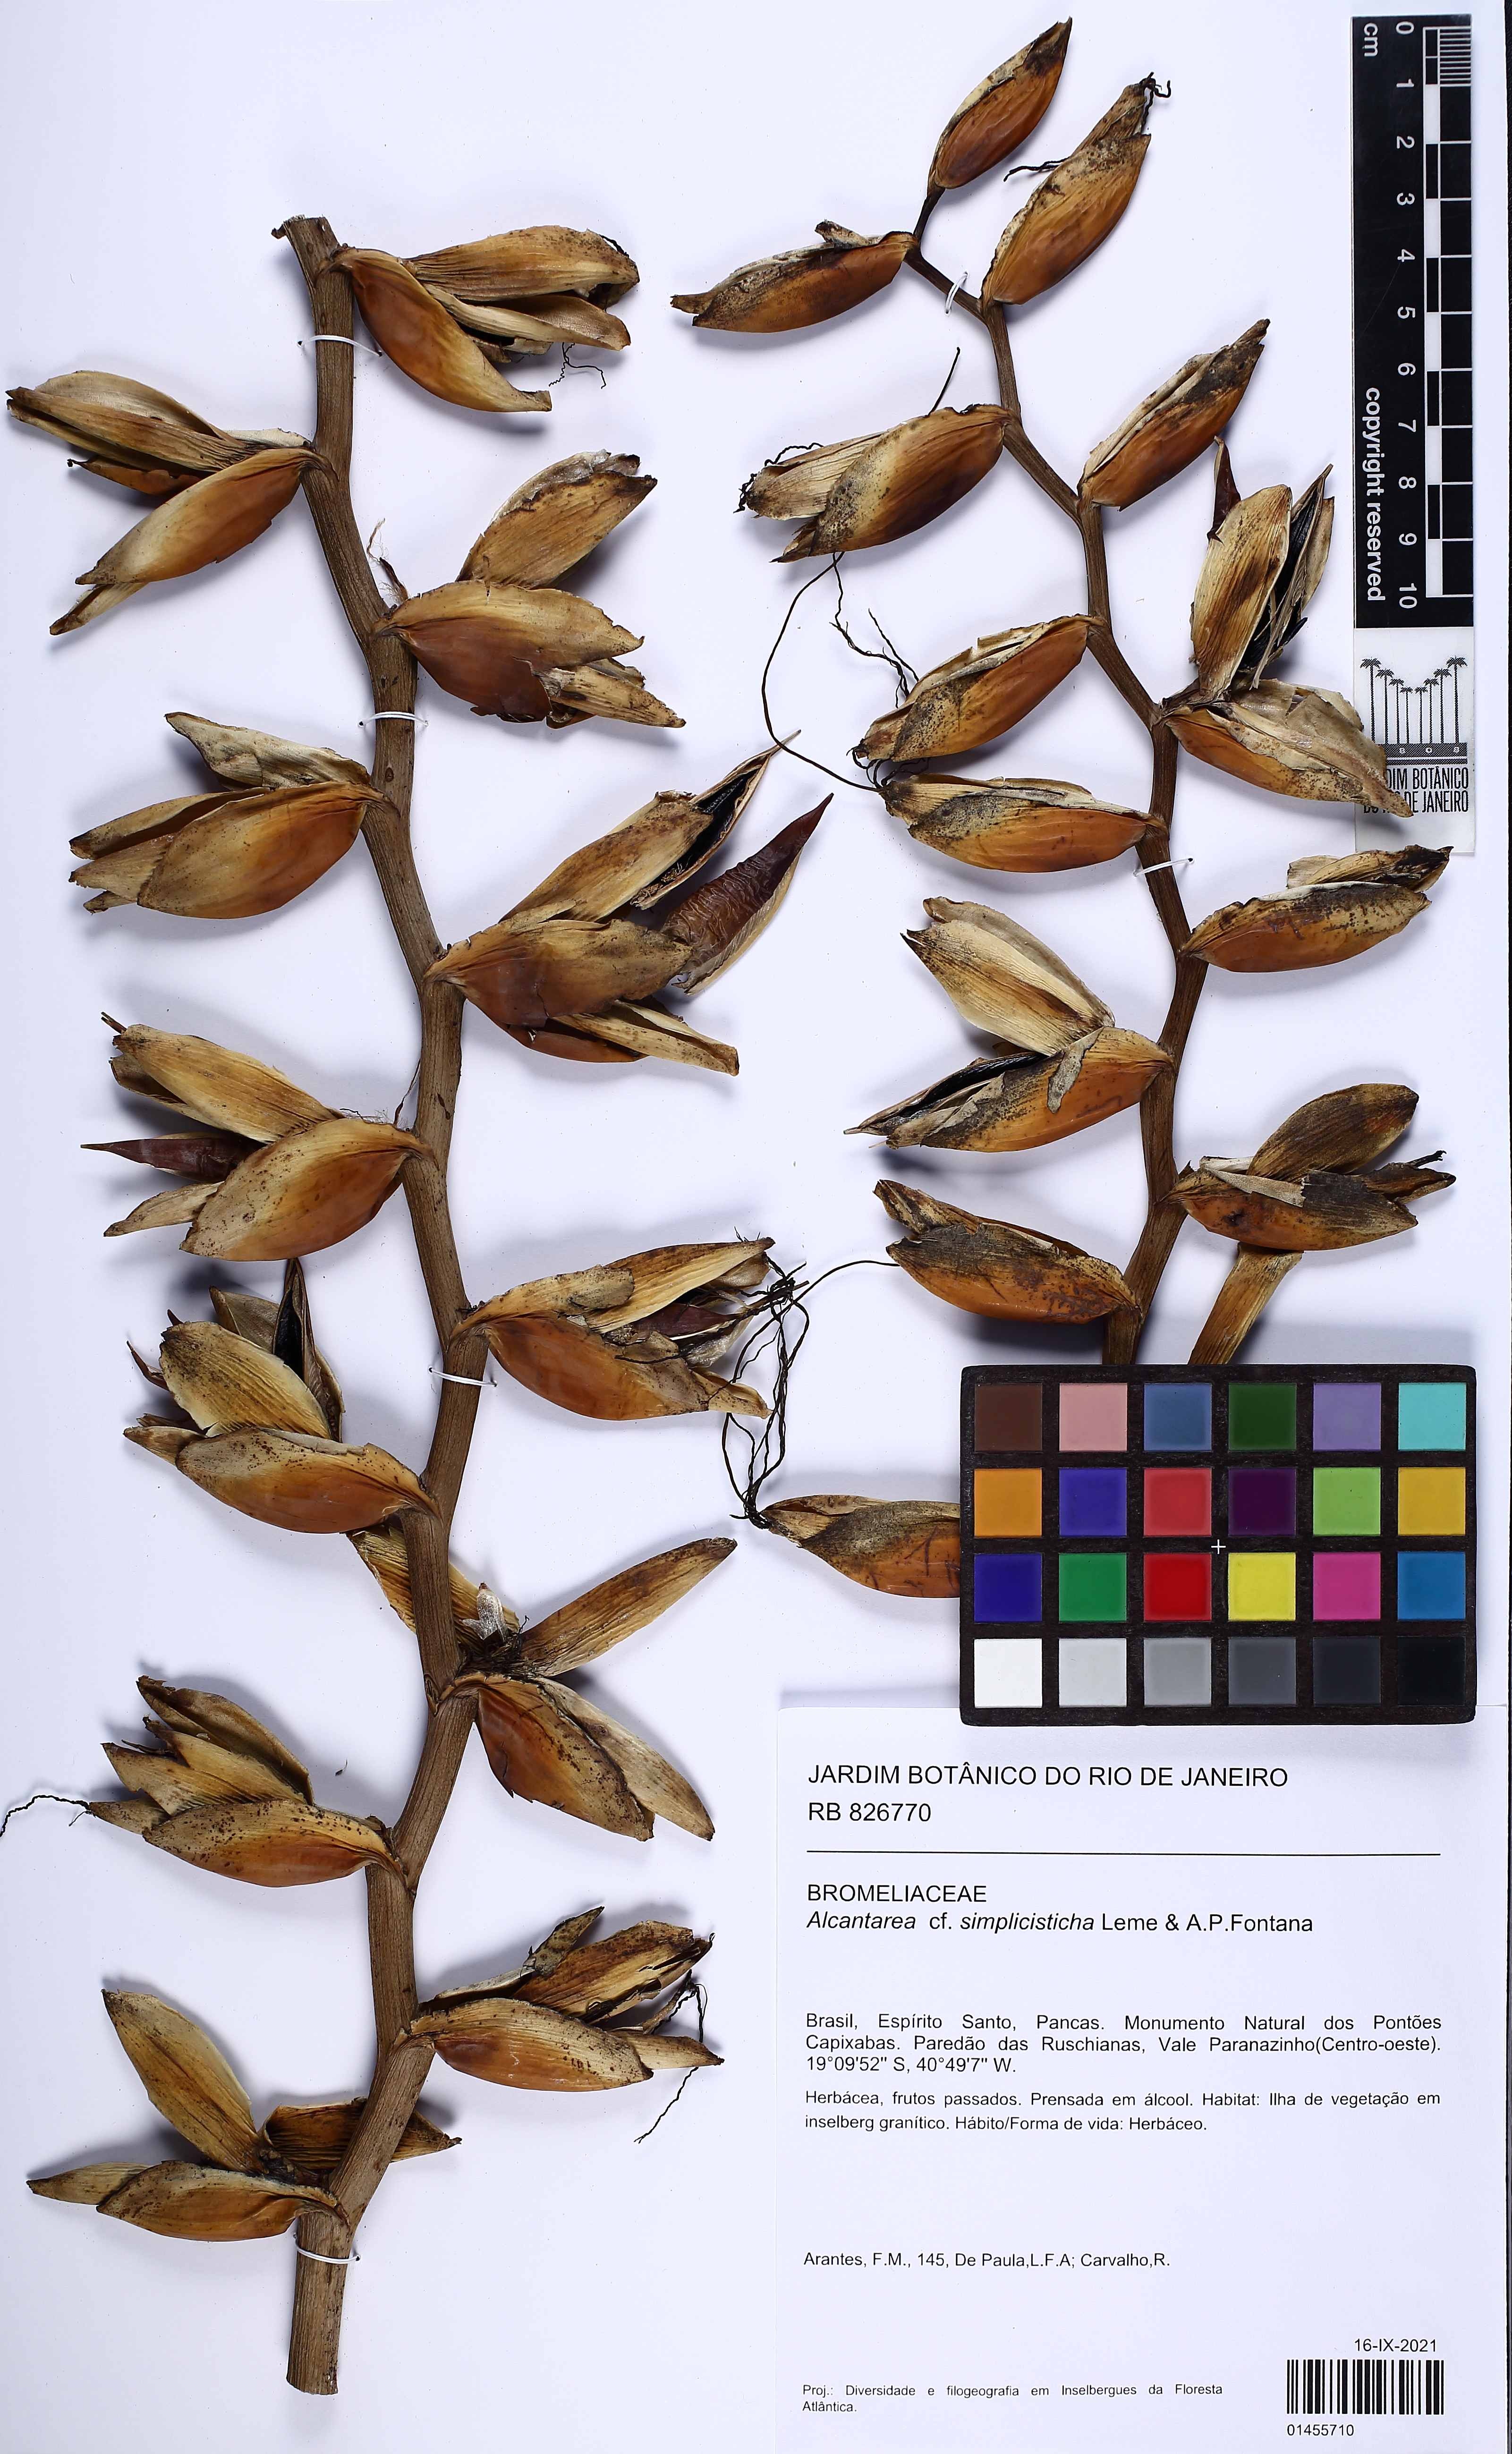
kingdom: Plantae
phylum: Tracheophyta
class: Liliopsida
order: Poales
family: Bromeliaceae
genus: Alcantarea
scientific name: Alcantarea simplicisticha
